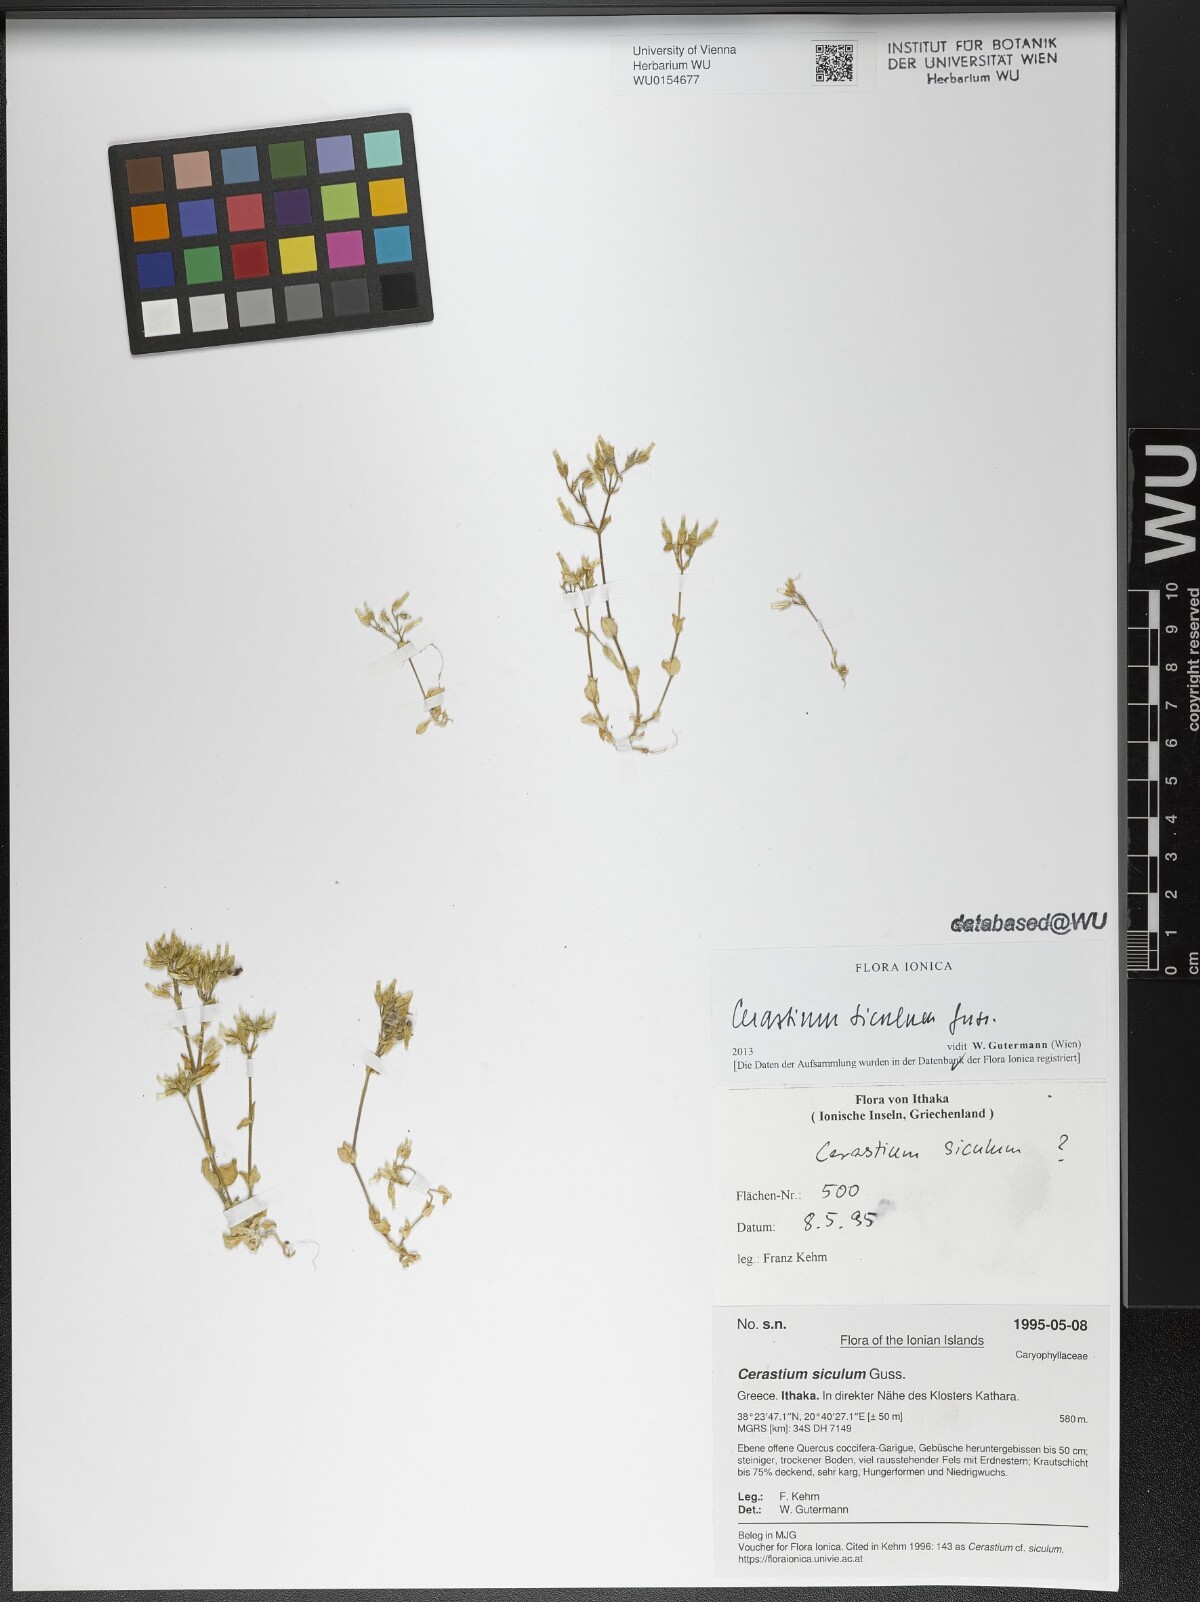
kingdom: Plantae
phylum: Tracheophyta
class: Magnoliopsida
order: Caryophyllales
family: Caryophyllaceae
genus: Cerastium
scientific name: Cerastium siculum
